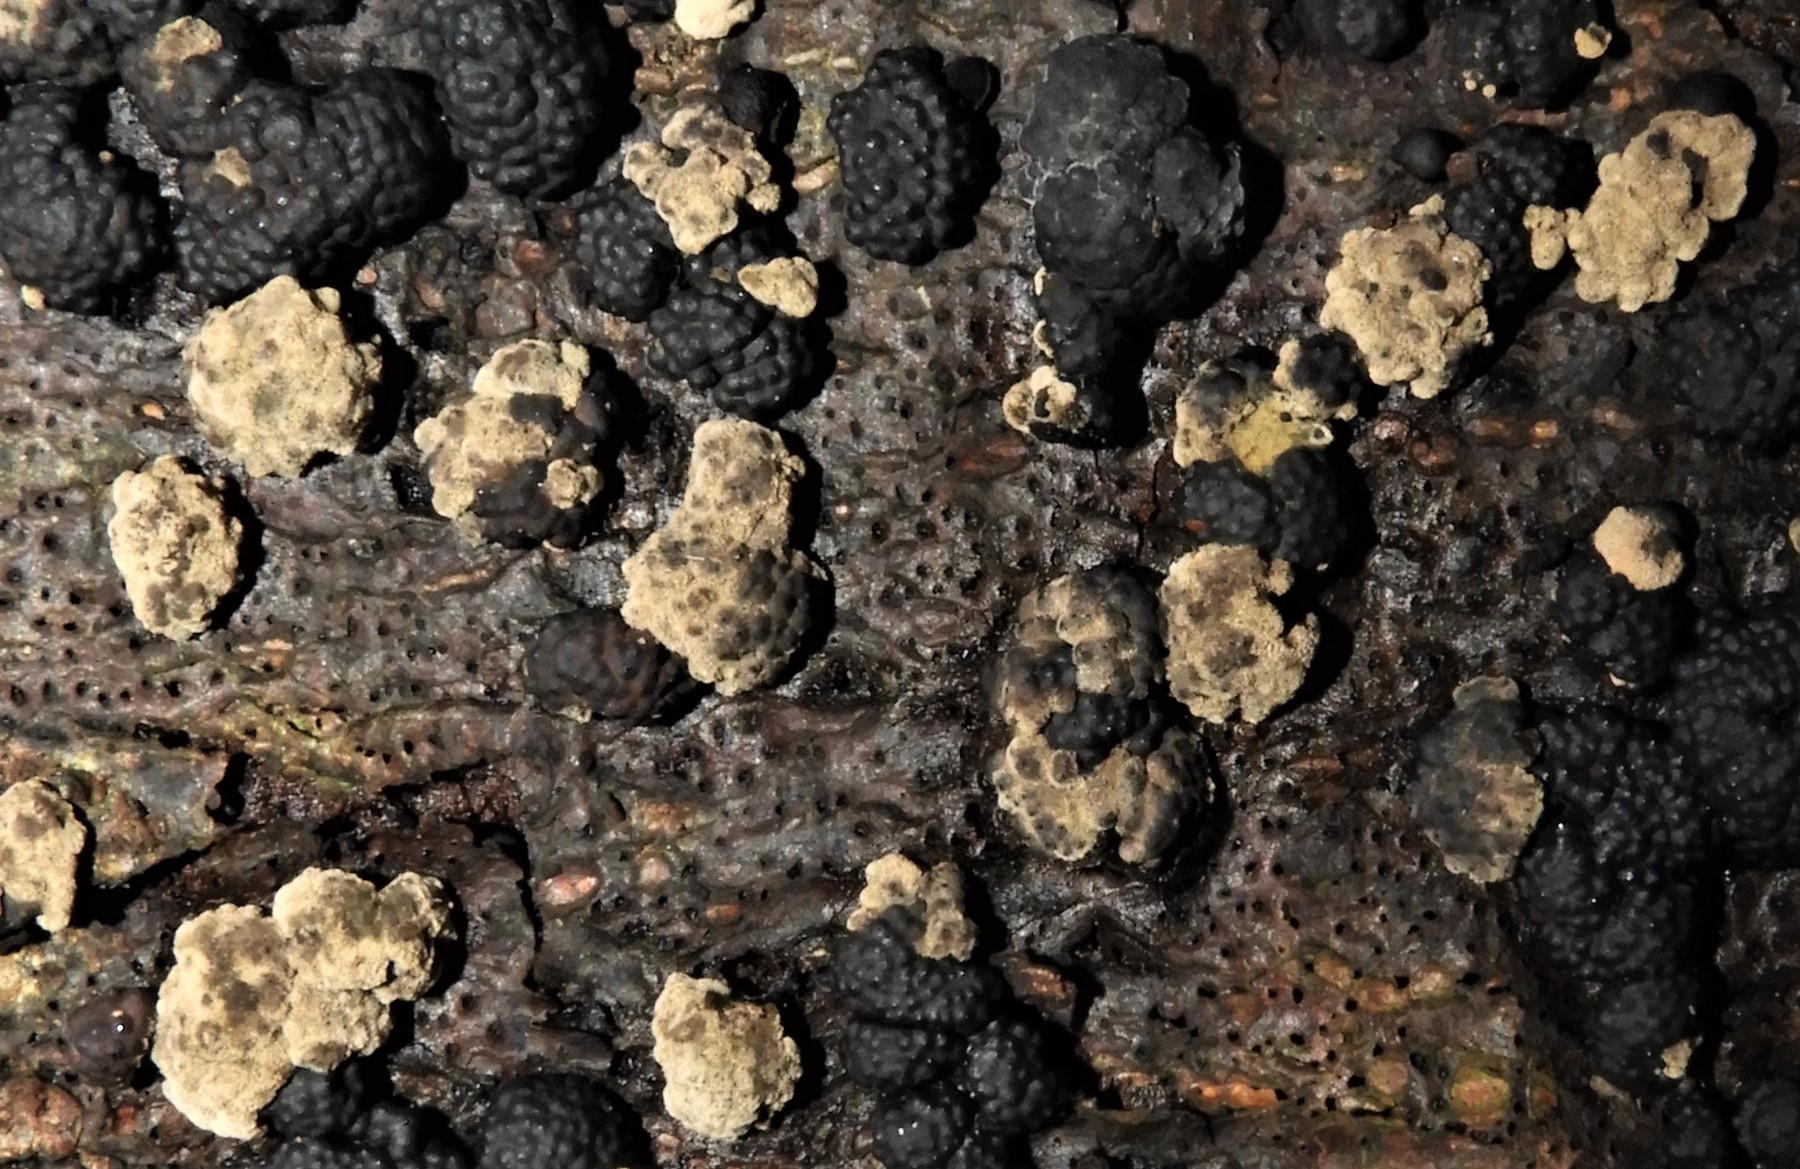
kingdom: Fungi
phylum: Ascomycota
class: Sordariomycetes
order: Xylariales
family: Hypoxylaceae
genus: Jackrogersella
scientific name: Jackrogersella multiformis
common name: foranderlig kulbær
